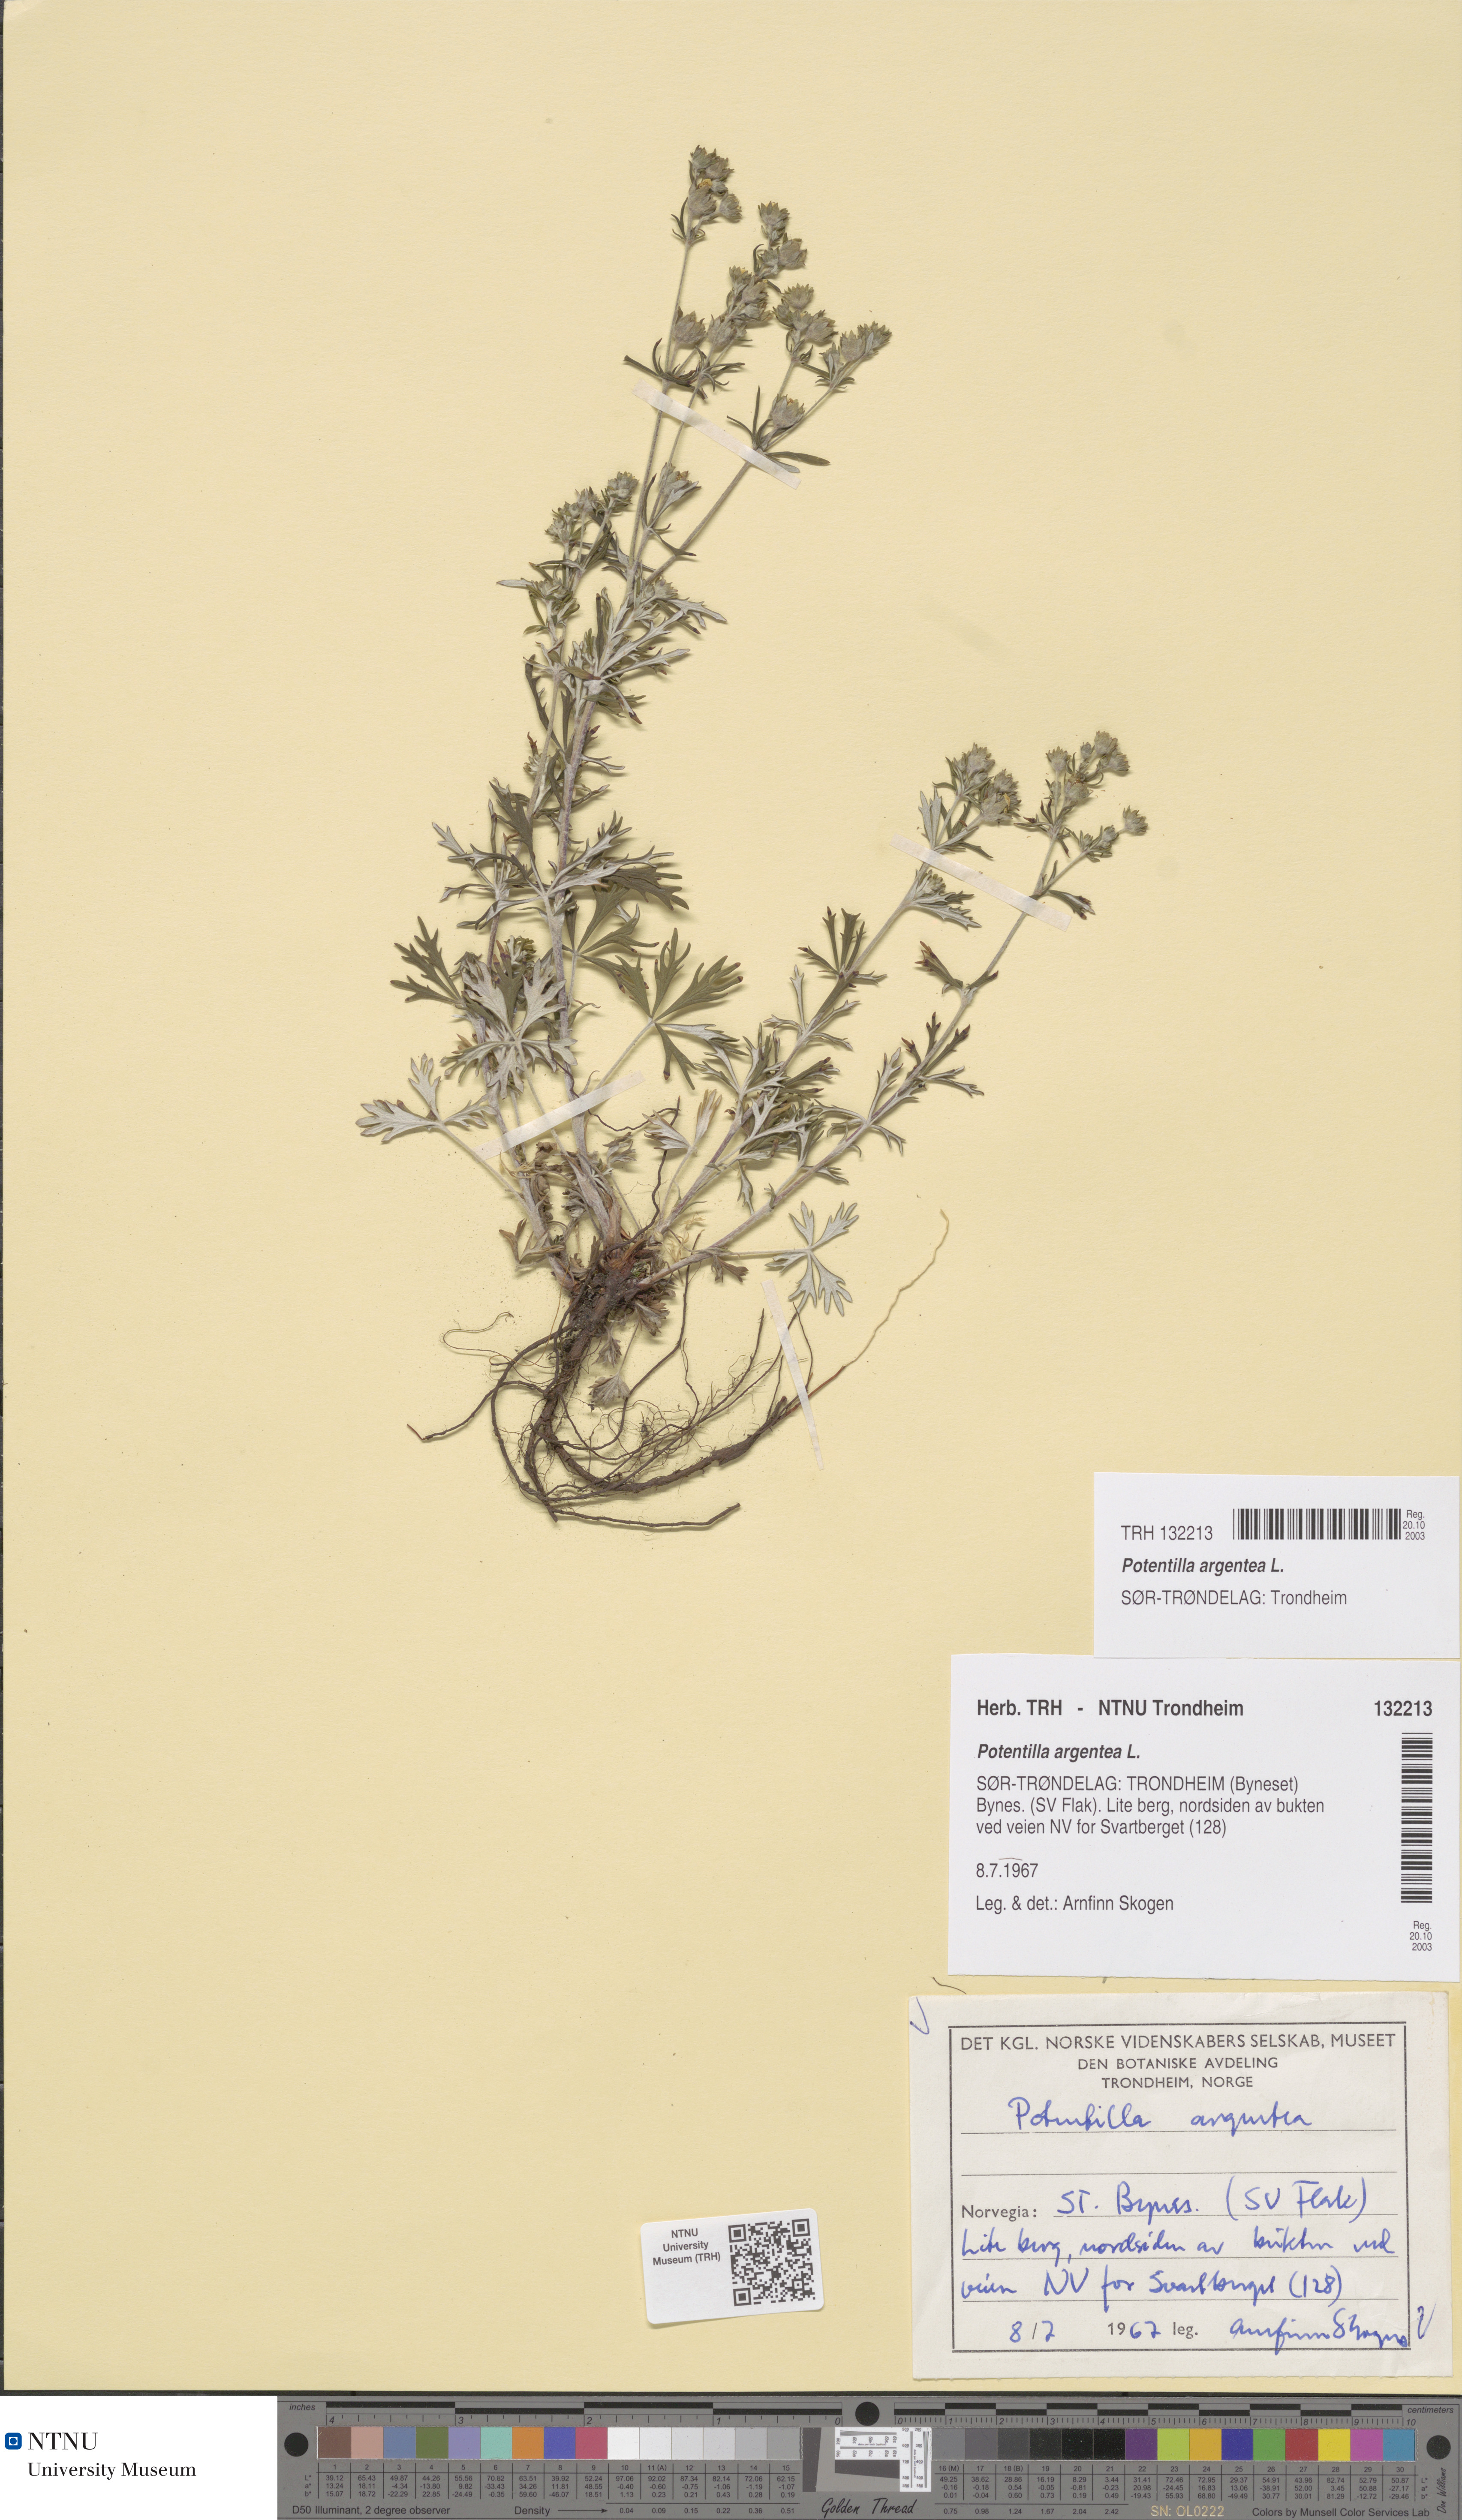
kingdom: Plantae
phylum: Tracheophyta
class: Magnoliopsida
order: Rosales
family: Rosaceae
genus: Potentilla
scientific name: Potentilla argentea
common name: Hoary cinquefoil
